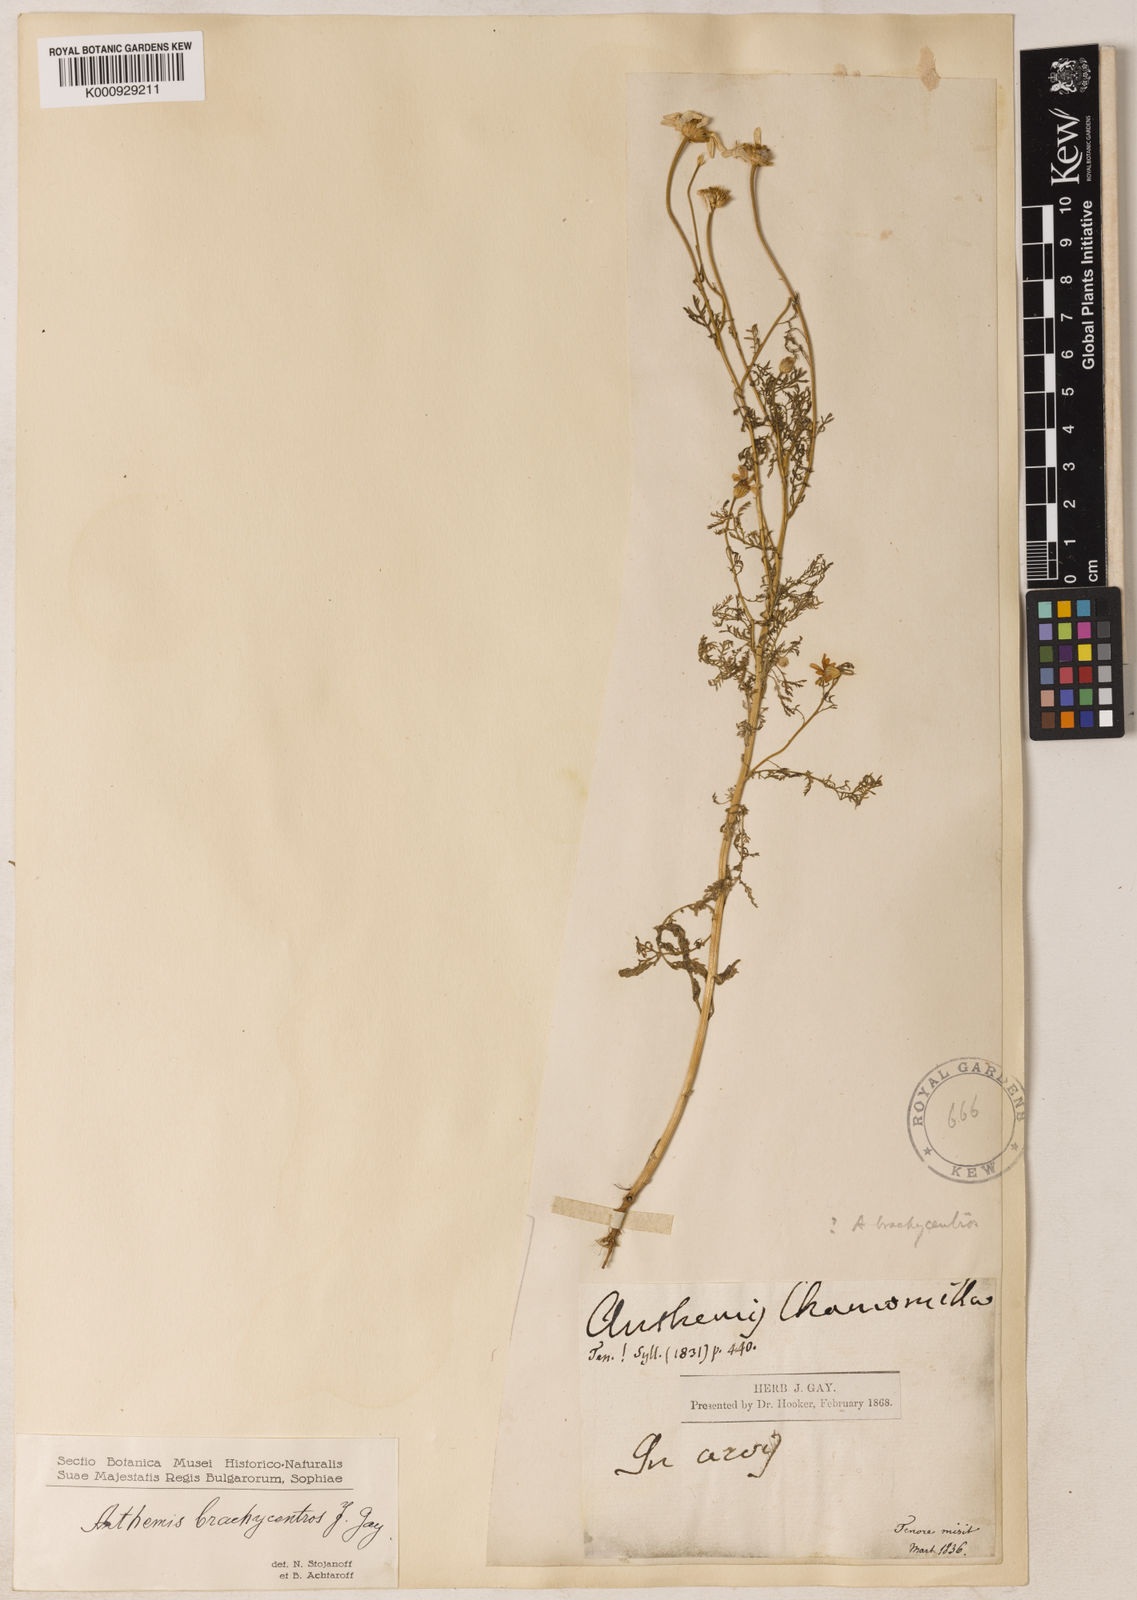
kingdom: Plantae
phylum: Tracheophyta
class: Magnoliopsida
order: Asterales
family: Asteraceae
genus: Cota
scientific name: Cota segetalis
